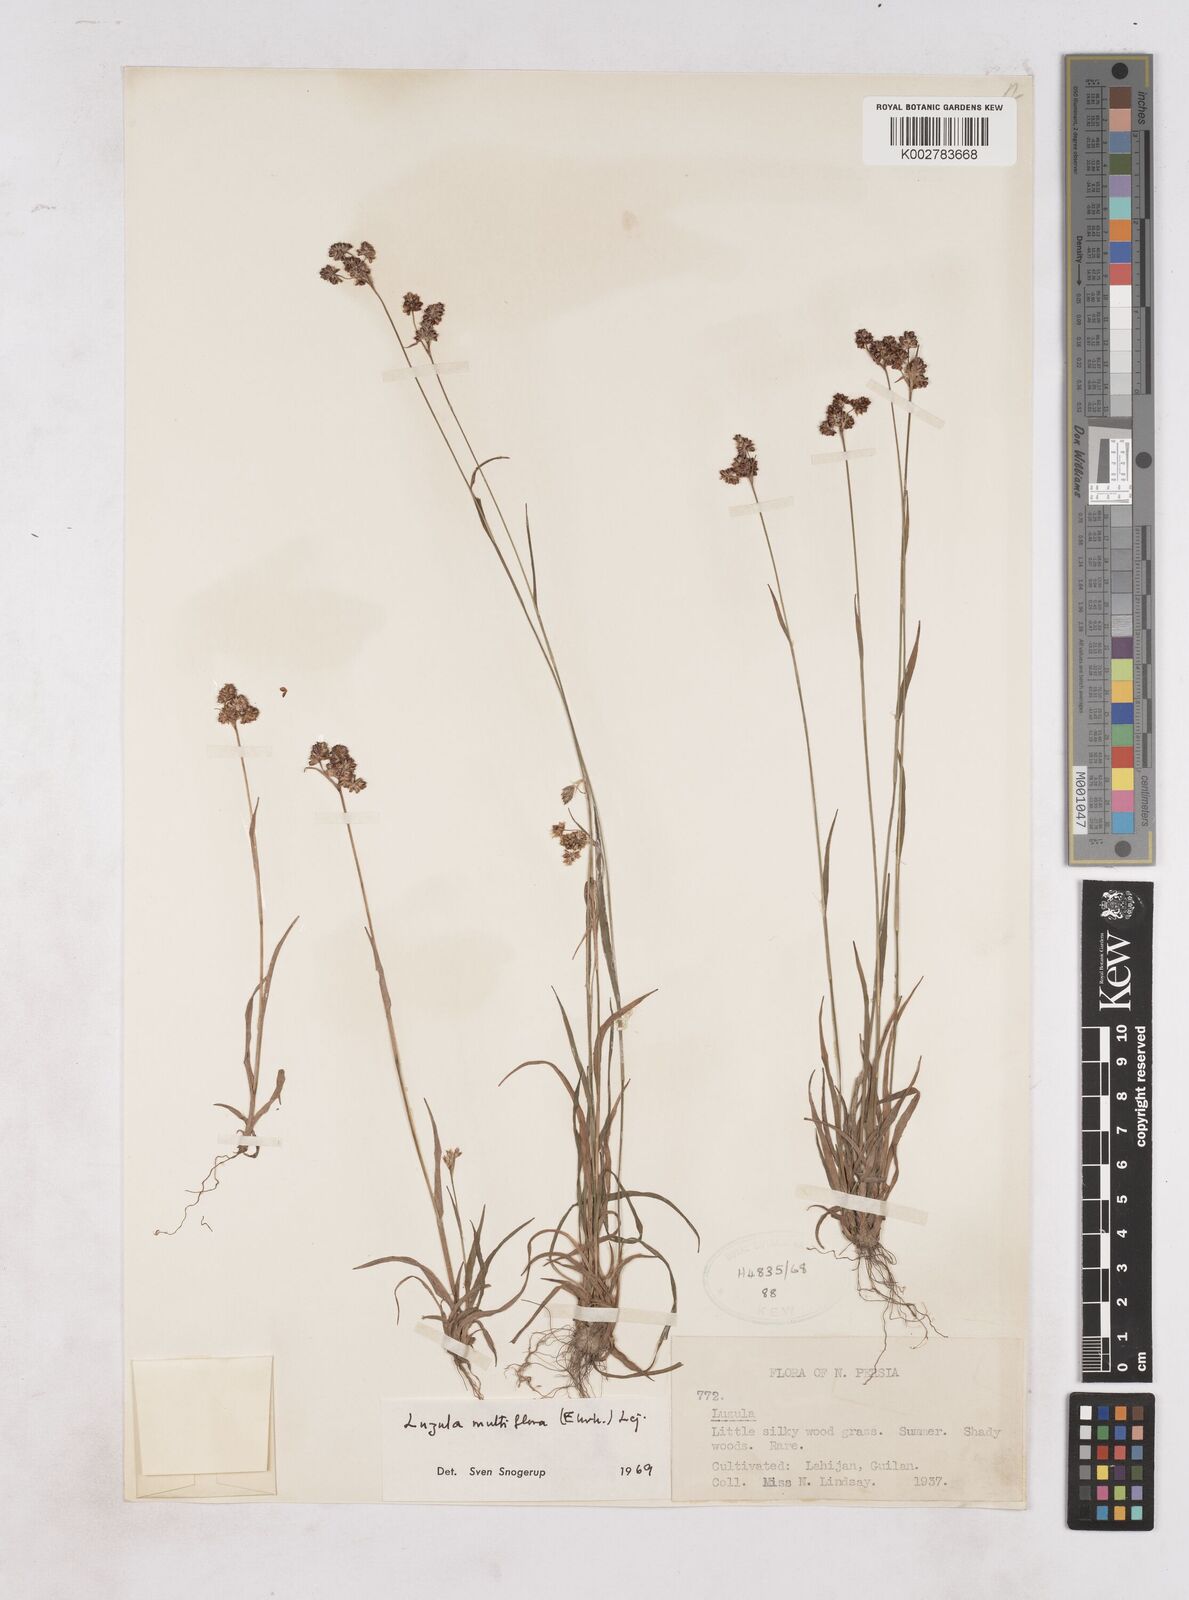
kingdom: Plantae
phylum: Tracheophyta
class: Liliopsida
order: Poales
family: Juncaceae
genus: Luzula
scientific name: Luzula campestris
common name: Field wood-rush
